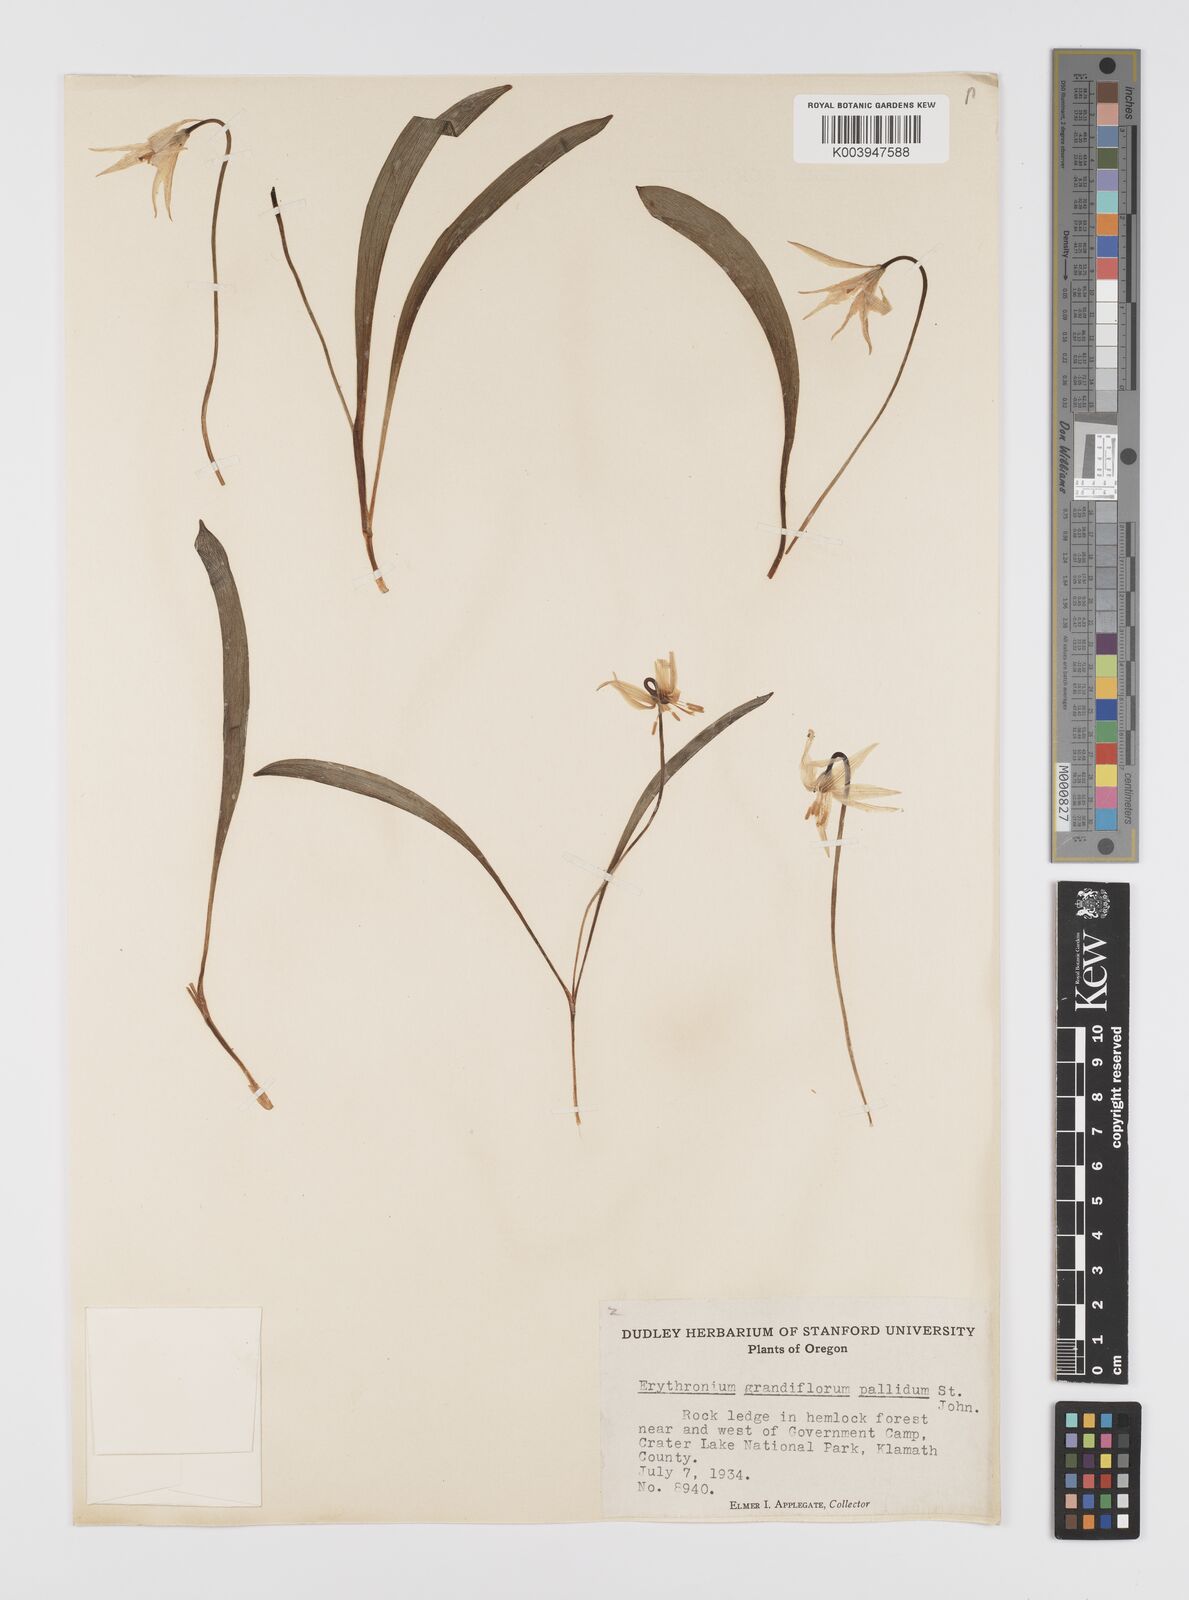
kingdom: Plantae
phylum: Tracheophyta
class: Liliopsida
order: Liliales
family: Liliaceae
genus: Erythronium
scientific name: Erythronium grandiflorum
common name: Avalanche-lily
